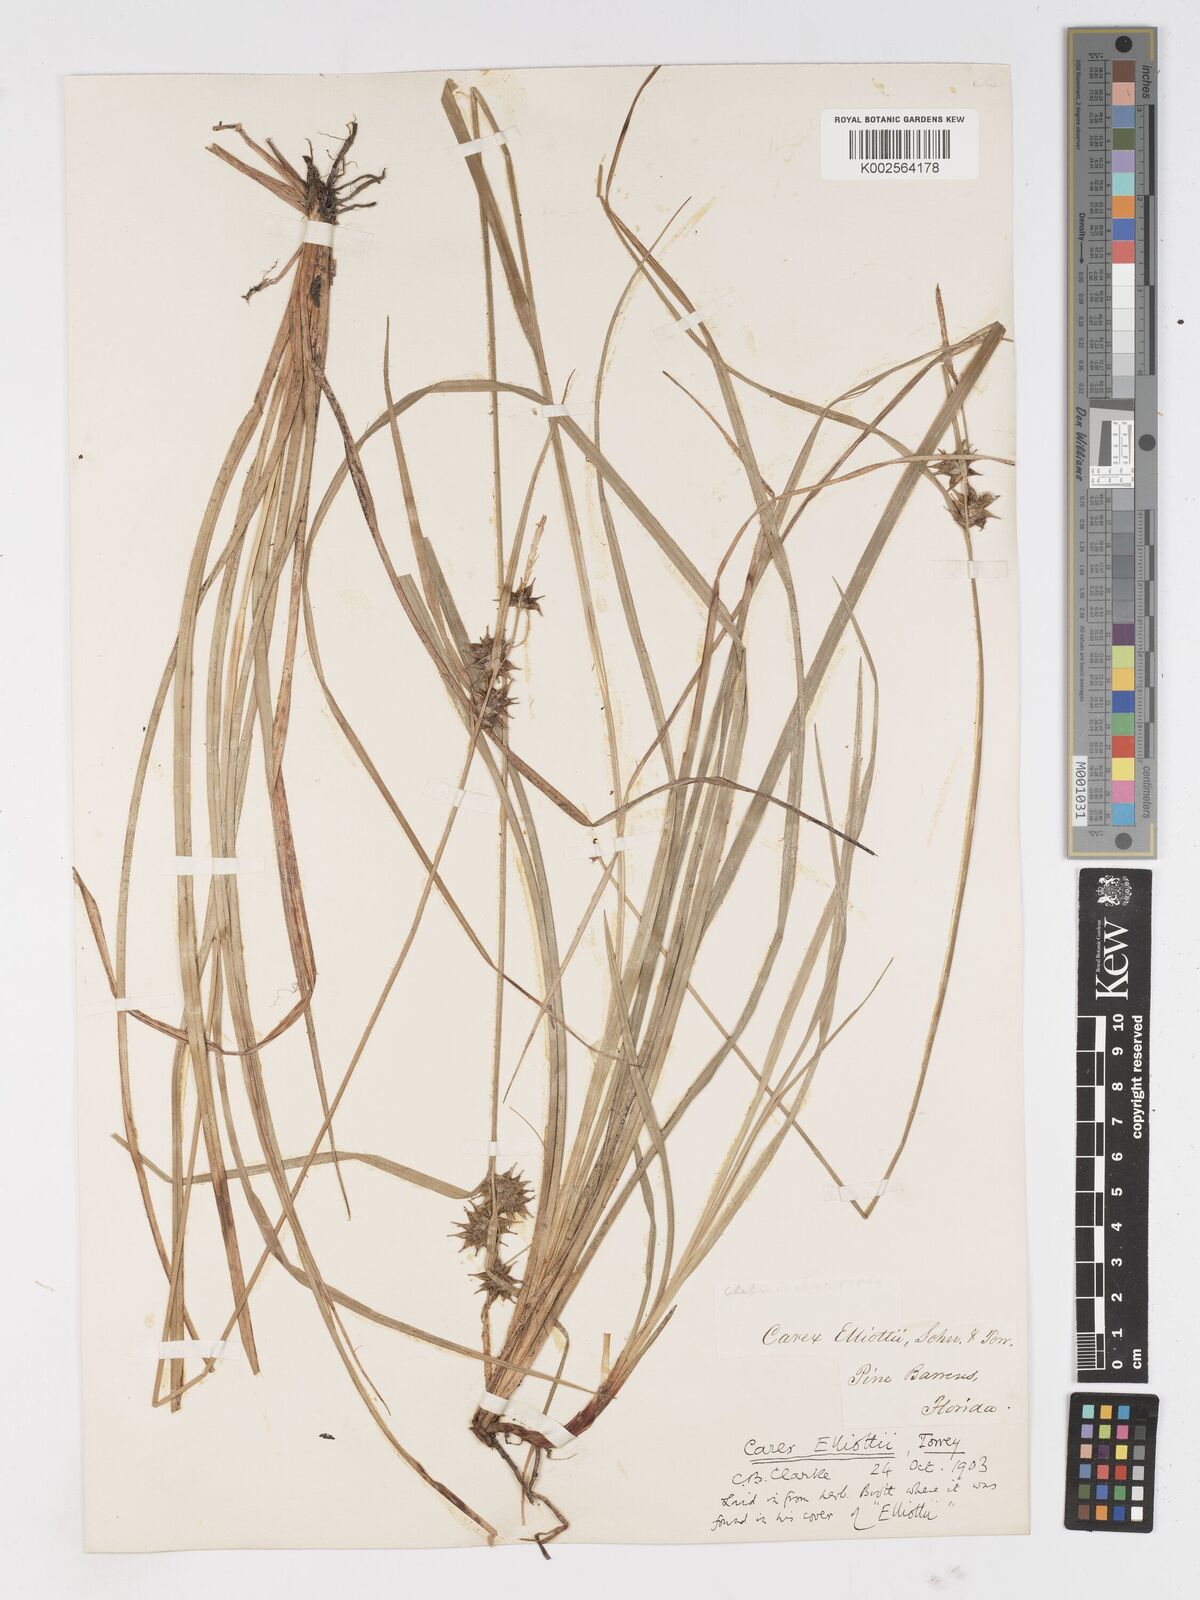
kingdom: Plantae
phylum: Tracheophyta
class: Liliopsida
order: Poales
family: Cyperaceae
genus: Carex
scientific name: Carex elliottii
